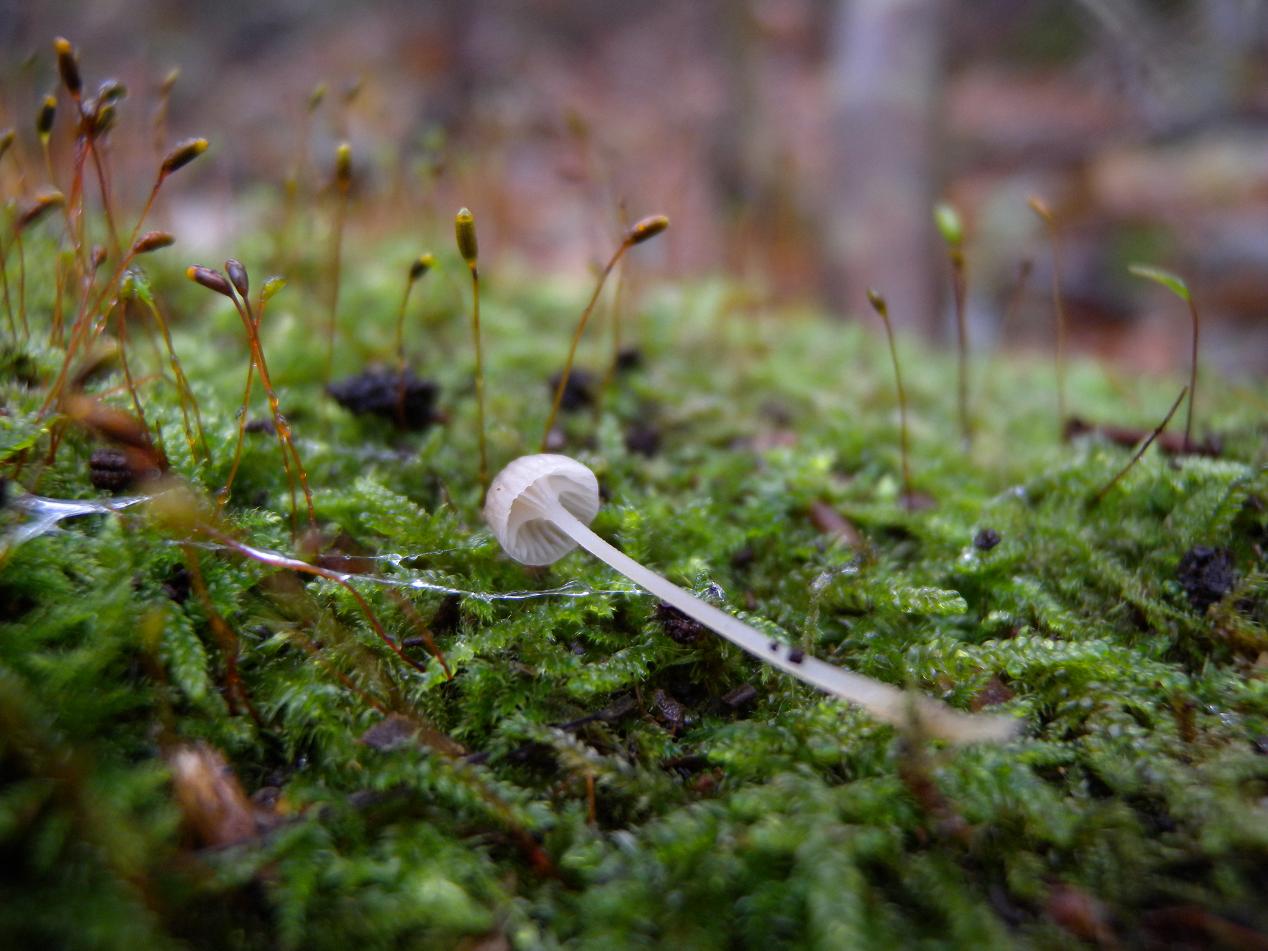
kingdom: Fungi
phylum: Basidiomycota
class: Agaricomycetes
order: Agaricales
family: Porotheleaceae
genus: Phloeomana
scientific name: Phloeomana speirea
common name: kvist-huesvamp
